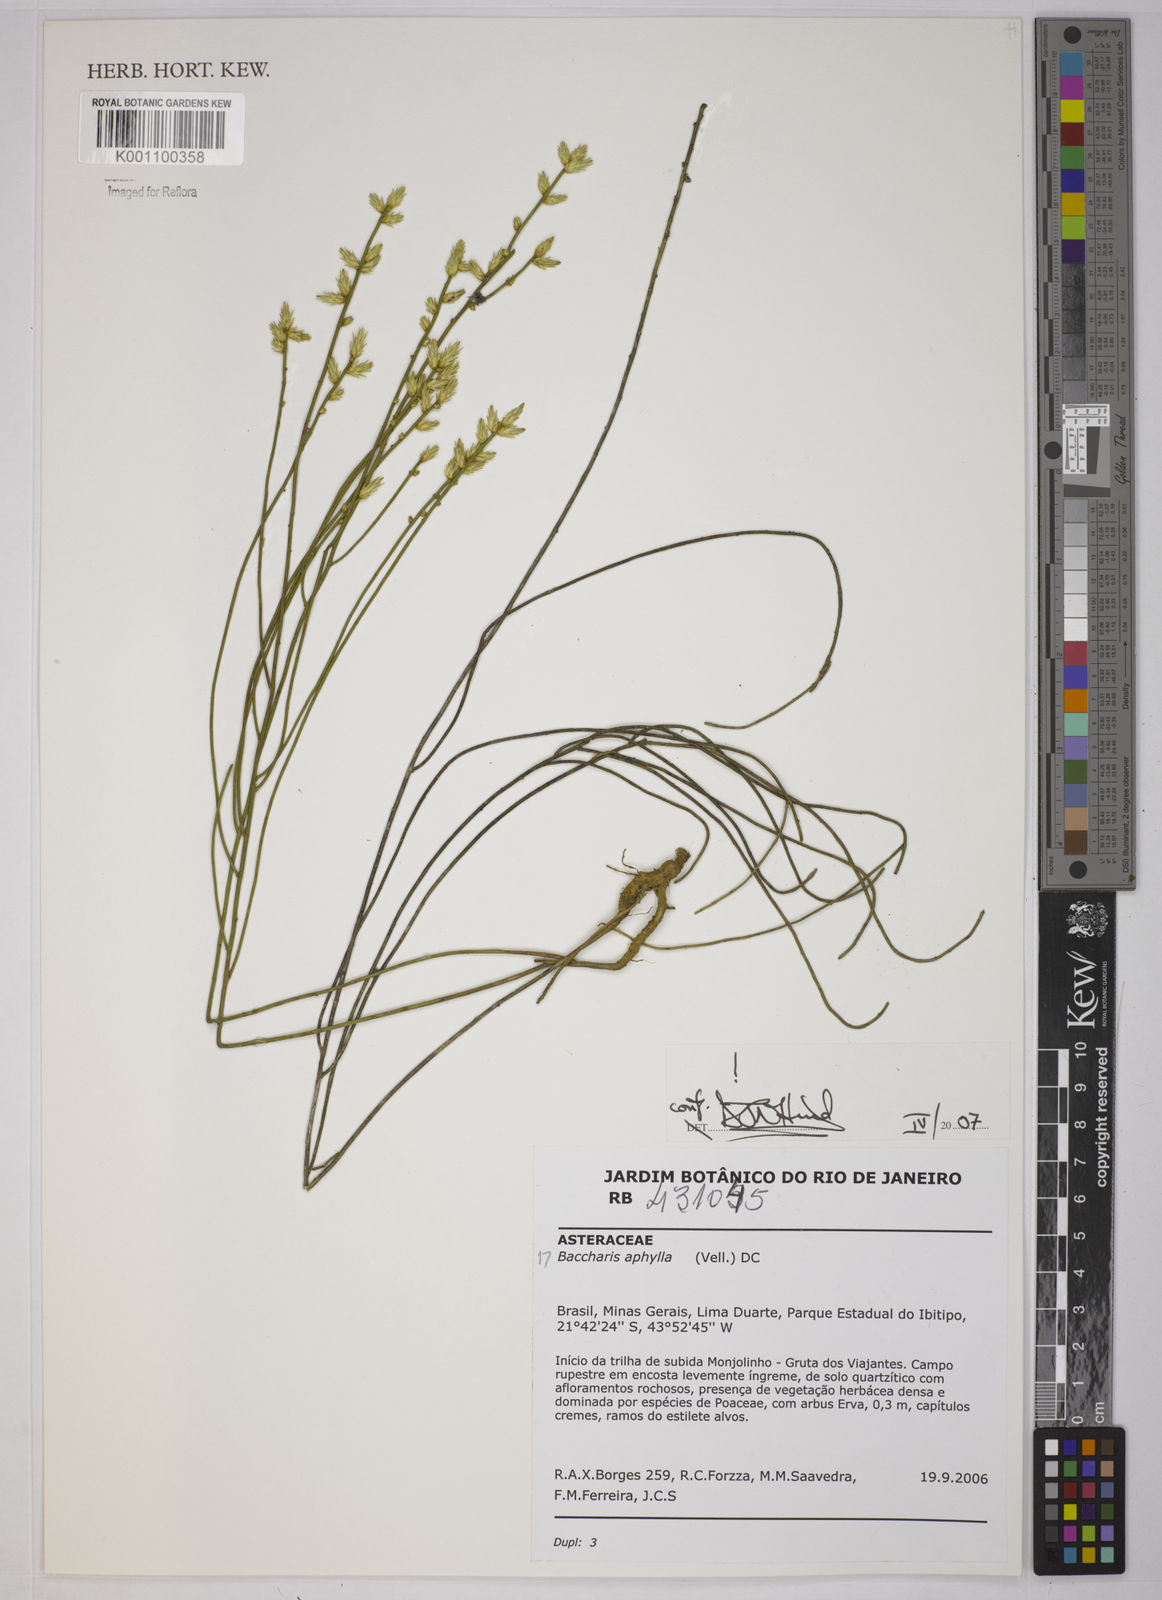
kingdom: Plantae
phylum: Tracheophyta
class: Magnoliopsida
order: Asterales
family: Asteraceae
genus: Baccharis
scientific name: Baccharis aphylla
